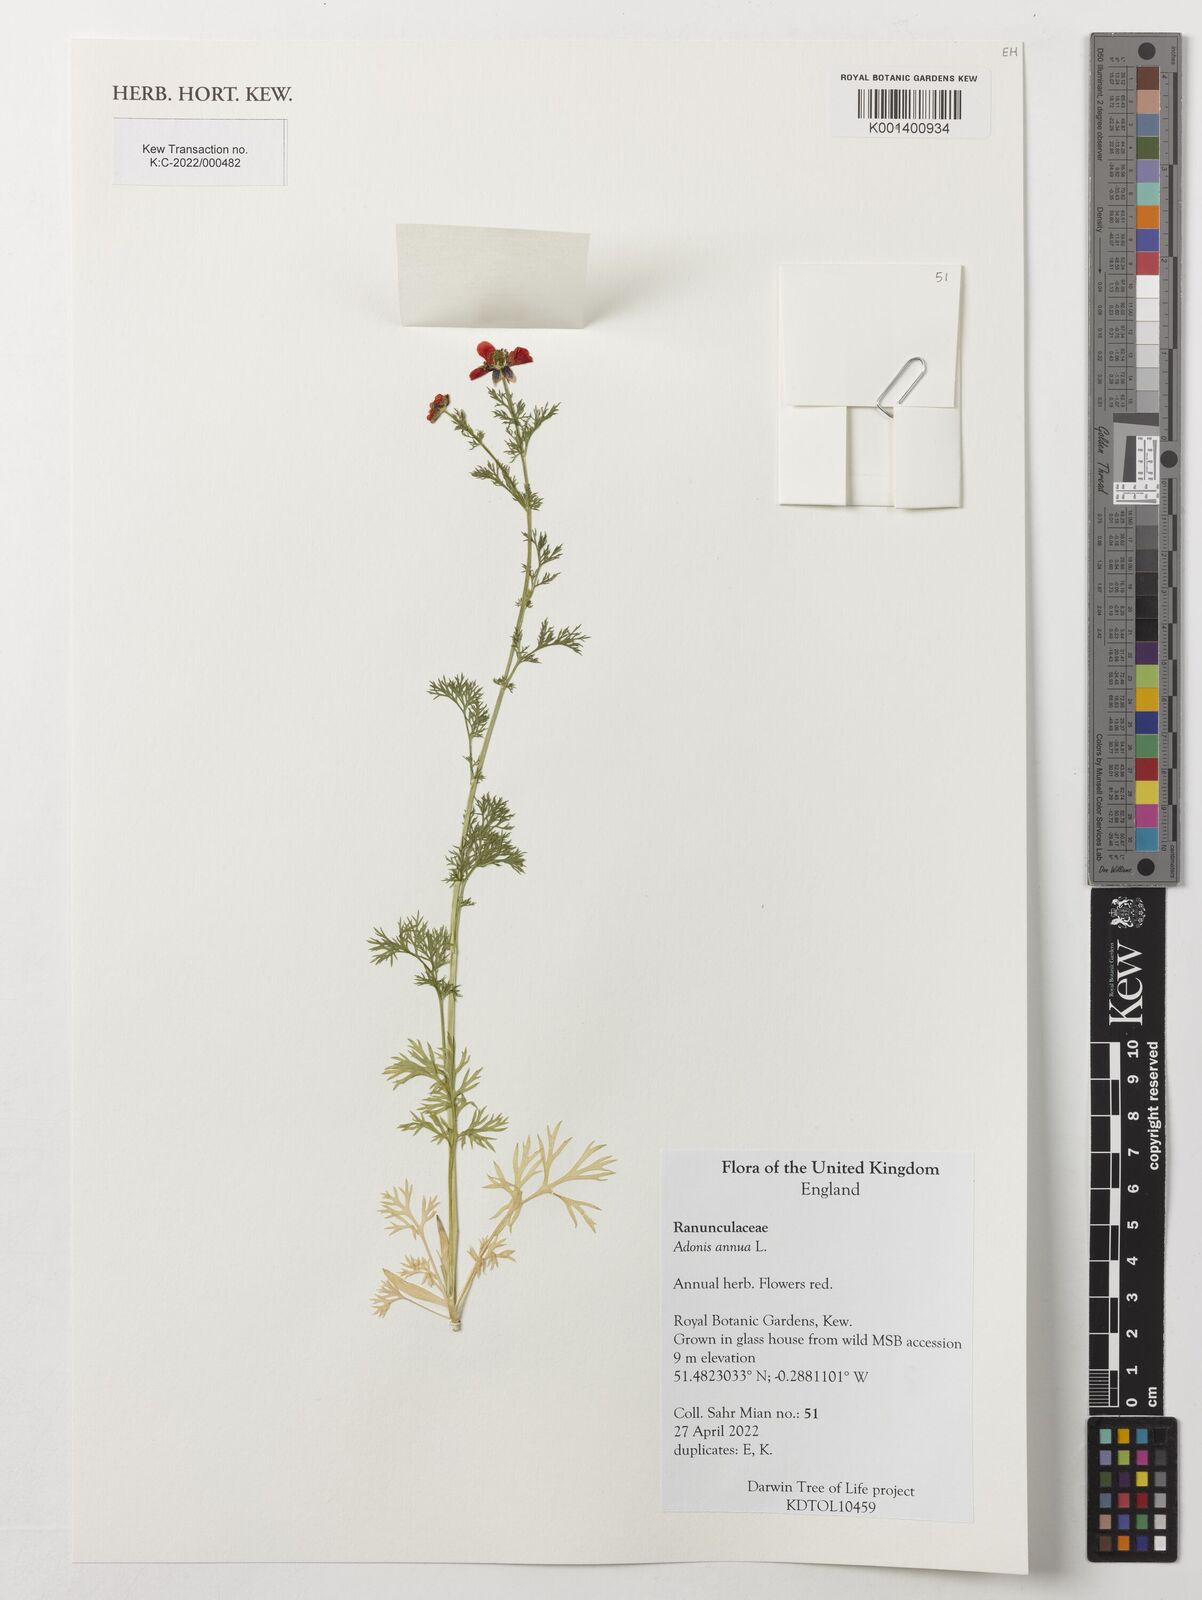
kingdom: Plantae
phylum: Tracheophyta
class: Magnoliopsida
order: Ranunculales
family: Ranunculaceae
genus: Adonis
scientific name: Adonis annua
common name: Pheasant's-eye
